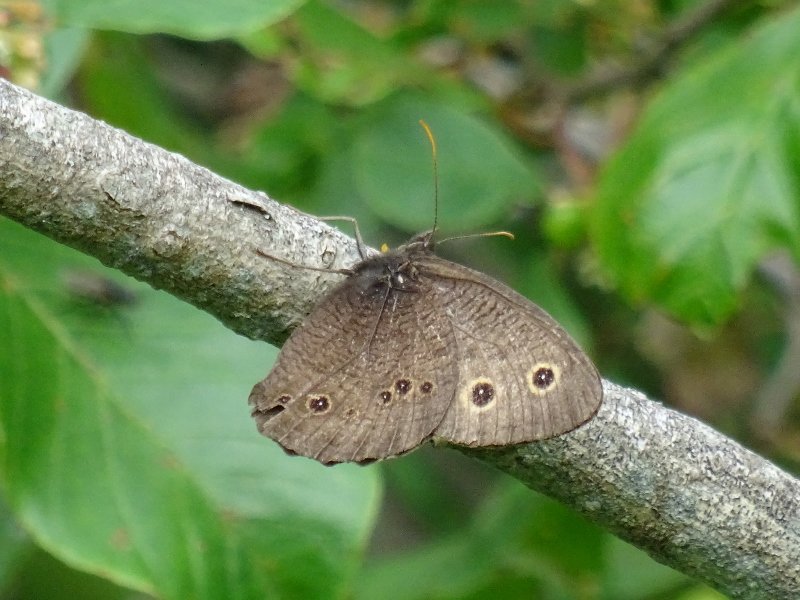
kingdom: Animalia
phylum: Arthropoda
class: Insecta
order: Lepidoptera
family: Nymphalidae
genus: Cercyonis
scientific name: Cercyonis pegala
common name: Common Wood-Nymph
